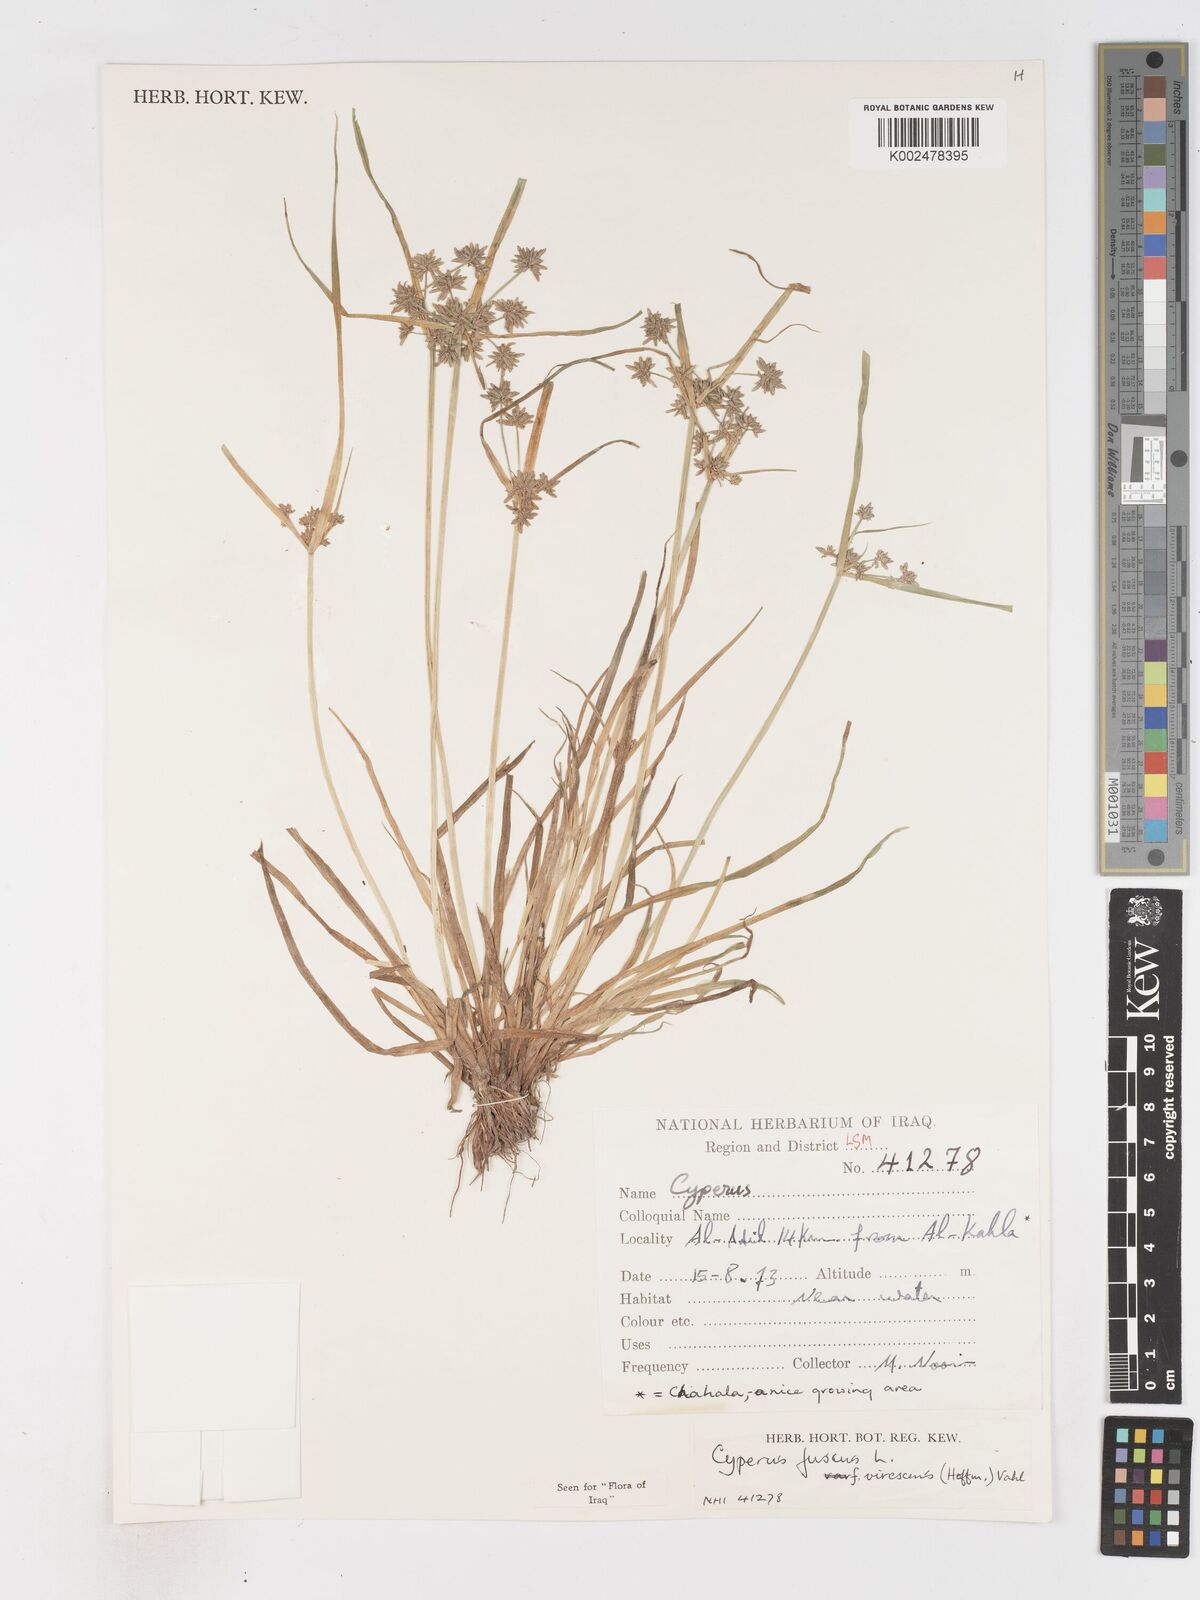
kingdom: Plantae
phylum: Tracheophyta
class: Liliopsida
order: Poales
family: Cyperaceae
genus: Cyperus
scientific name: Cyperus fuscus
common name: Brown galingale
